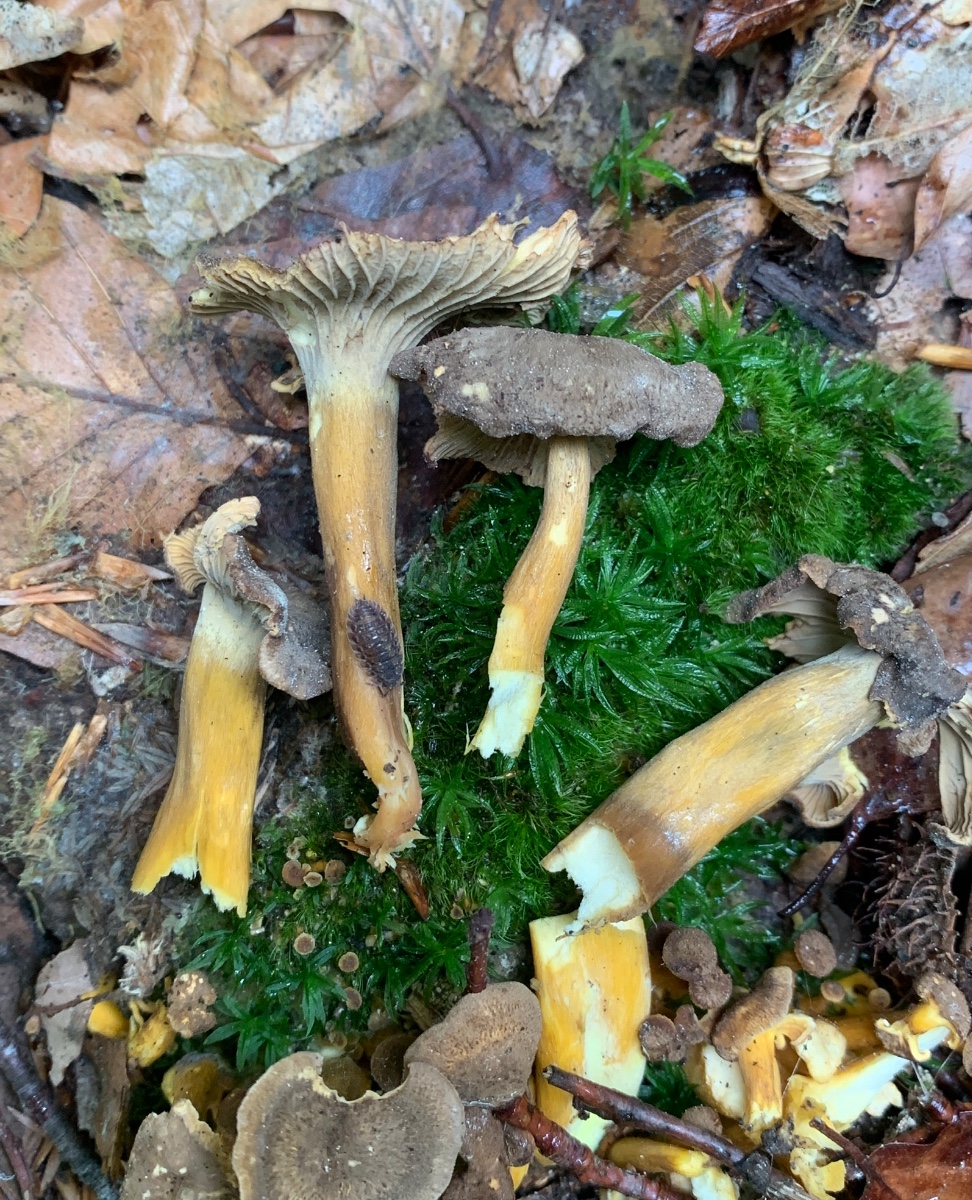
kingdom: Fungi
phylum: Basidiomycota
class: Agaricomycetes
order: Cantharellales
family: Hydnaceae
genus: Craterellus
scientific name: Craterellus tubaeformis
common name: tragt-kantarel
